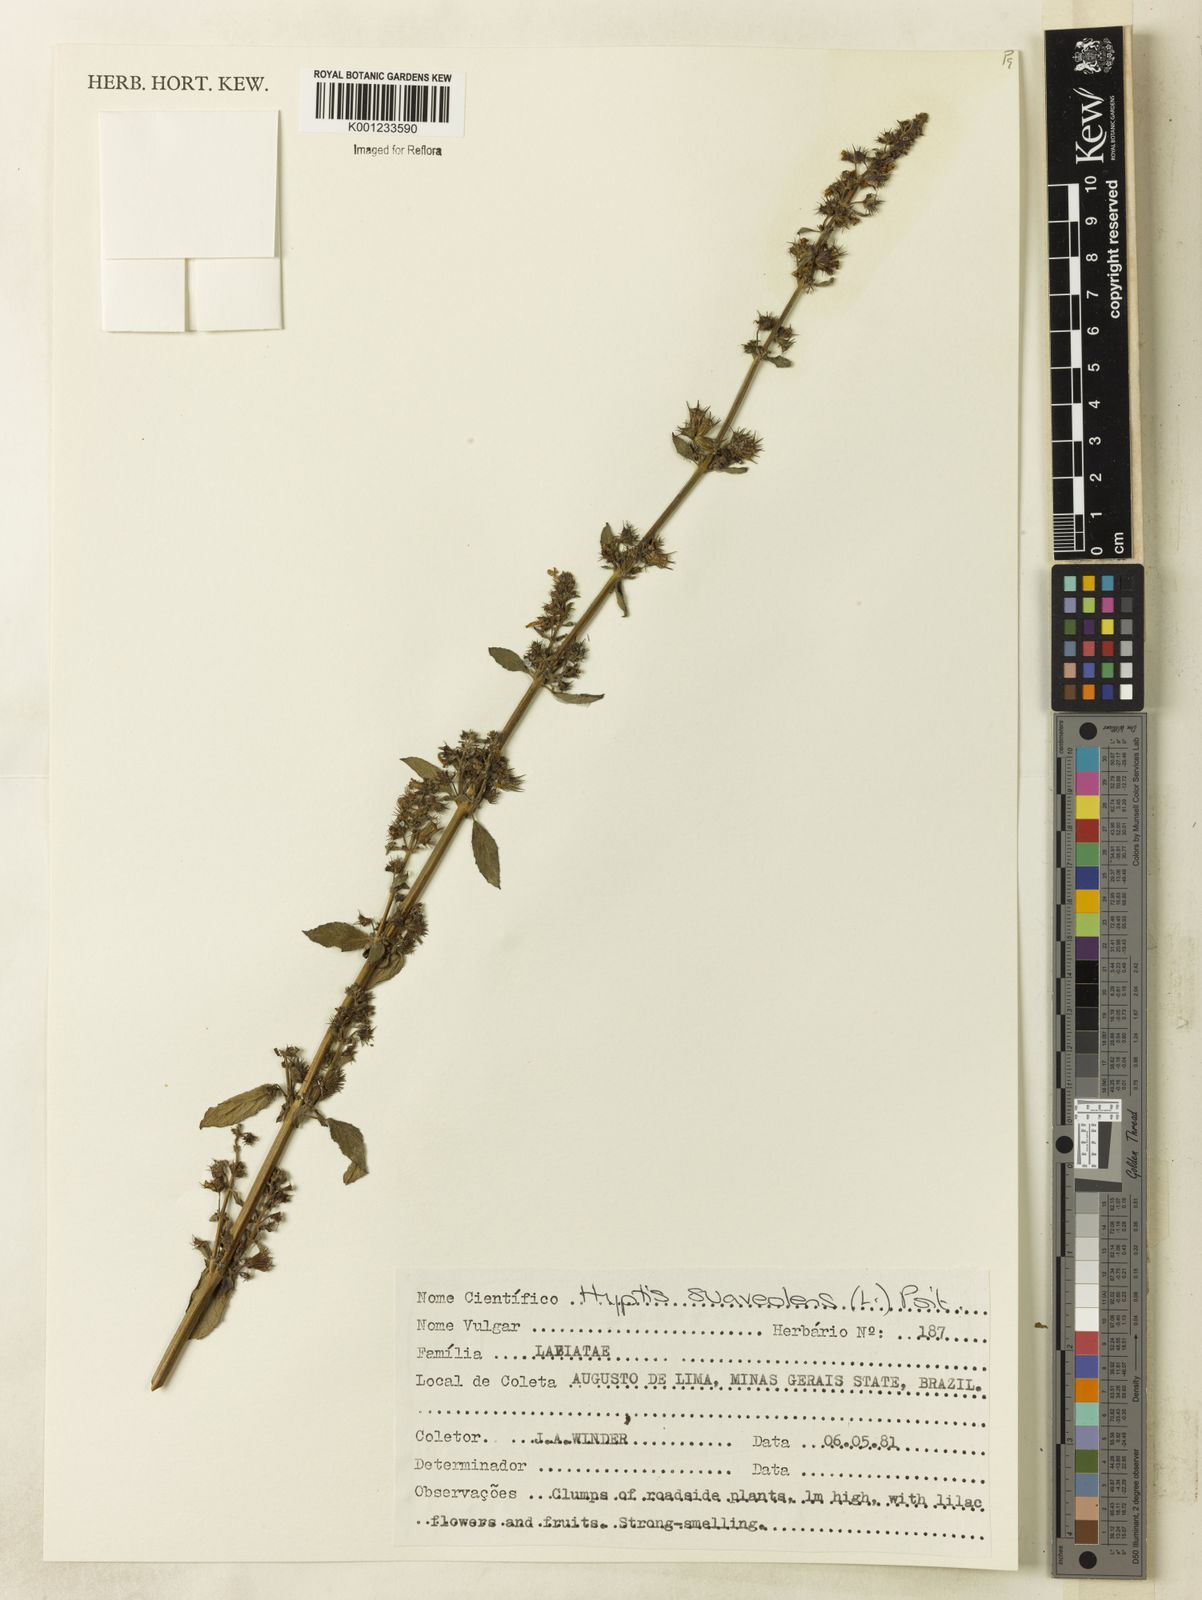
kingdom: Plantae
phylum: Tracheophyta
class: Magnoliopsida
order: Lamiales
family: Lamiaceae
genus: Mesosphaerum
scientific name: Mesosphaerum suaveolens
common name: Pignut
